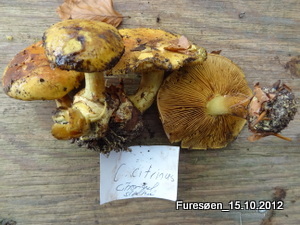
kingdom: Fungi
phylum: Basidiomycota
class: Agaricomycetes
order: Agaricales
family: Cortinariaceae
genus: Calonarius
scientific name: Calonarius citrinus
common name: citrongul slørhat
